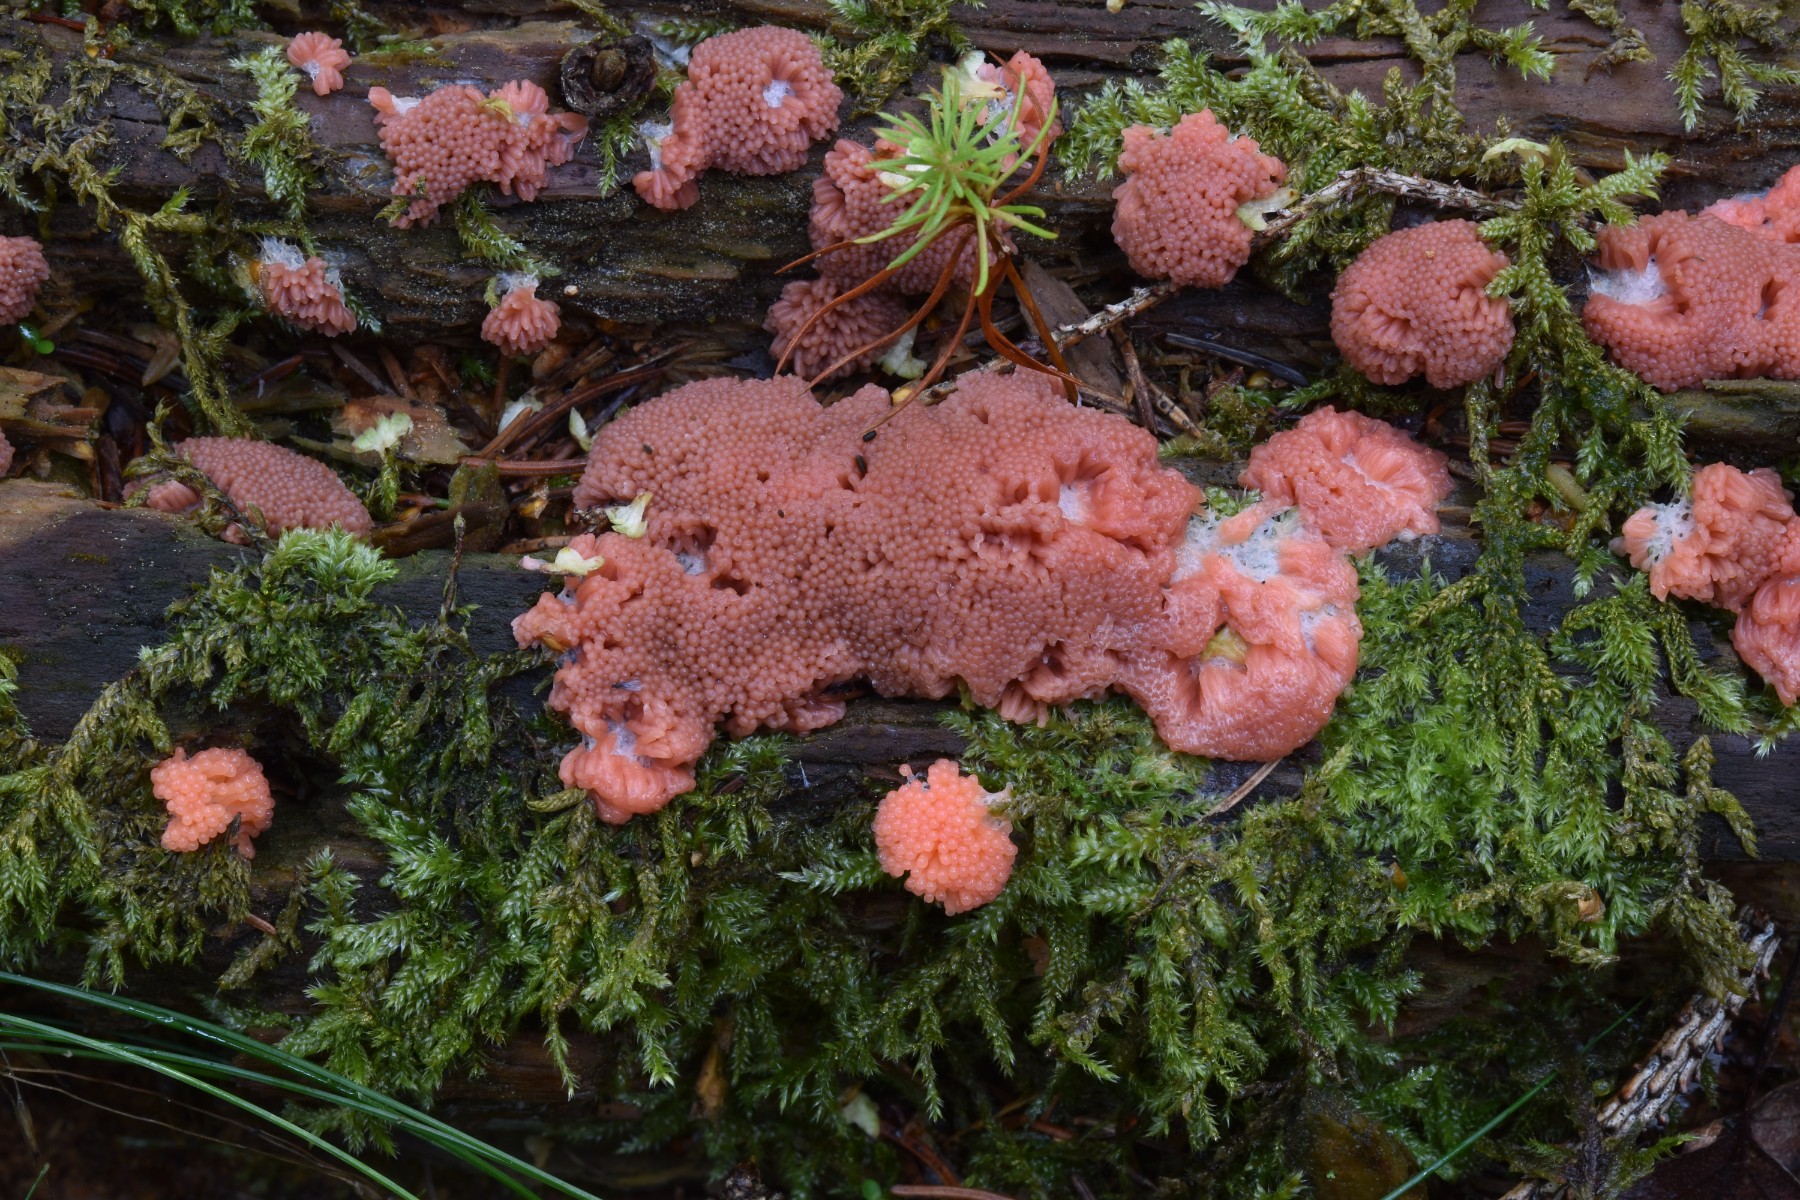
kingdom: Protozoa
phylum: Mycetozoa
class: Myxomycetes
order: Cribrariales
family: Tubiferaceae
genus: Tubifera
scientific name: Tubifera ferruginosa
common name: kanel-støvrør
